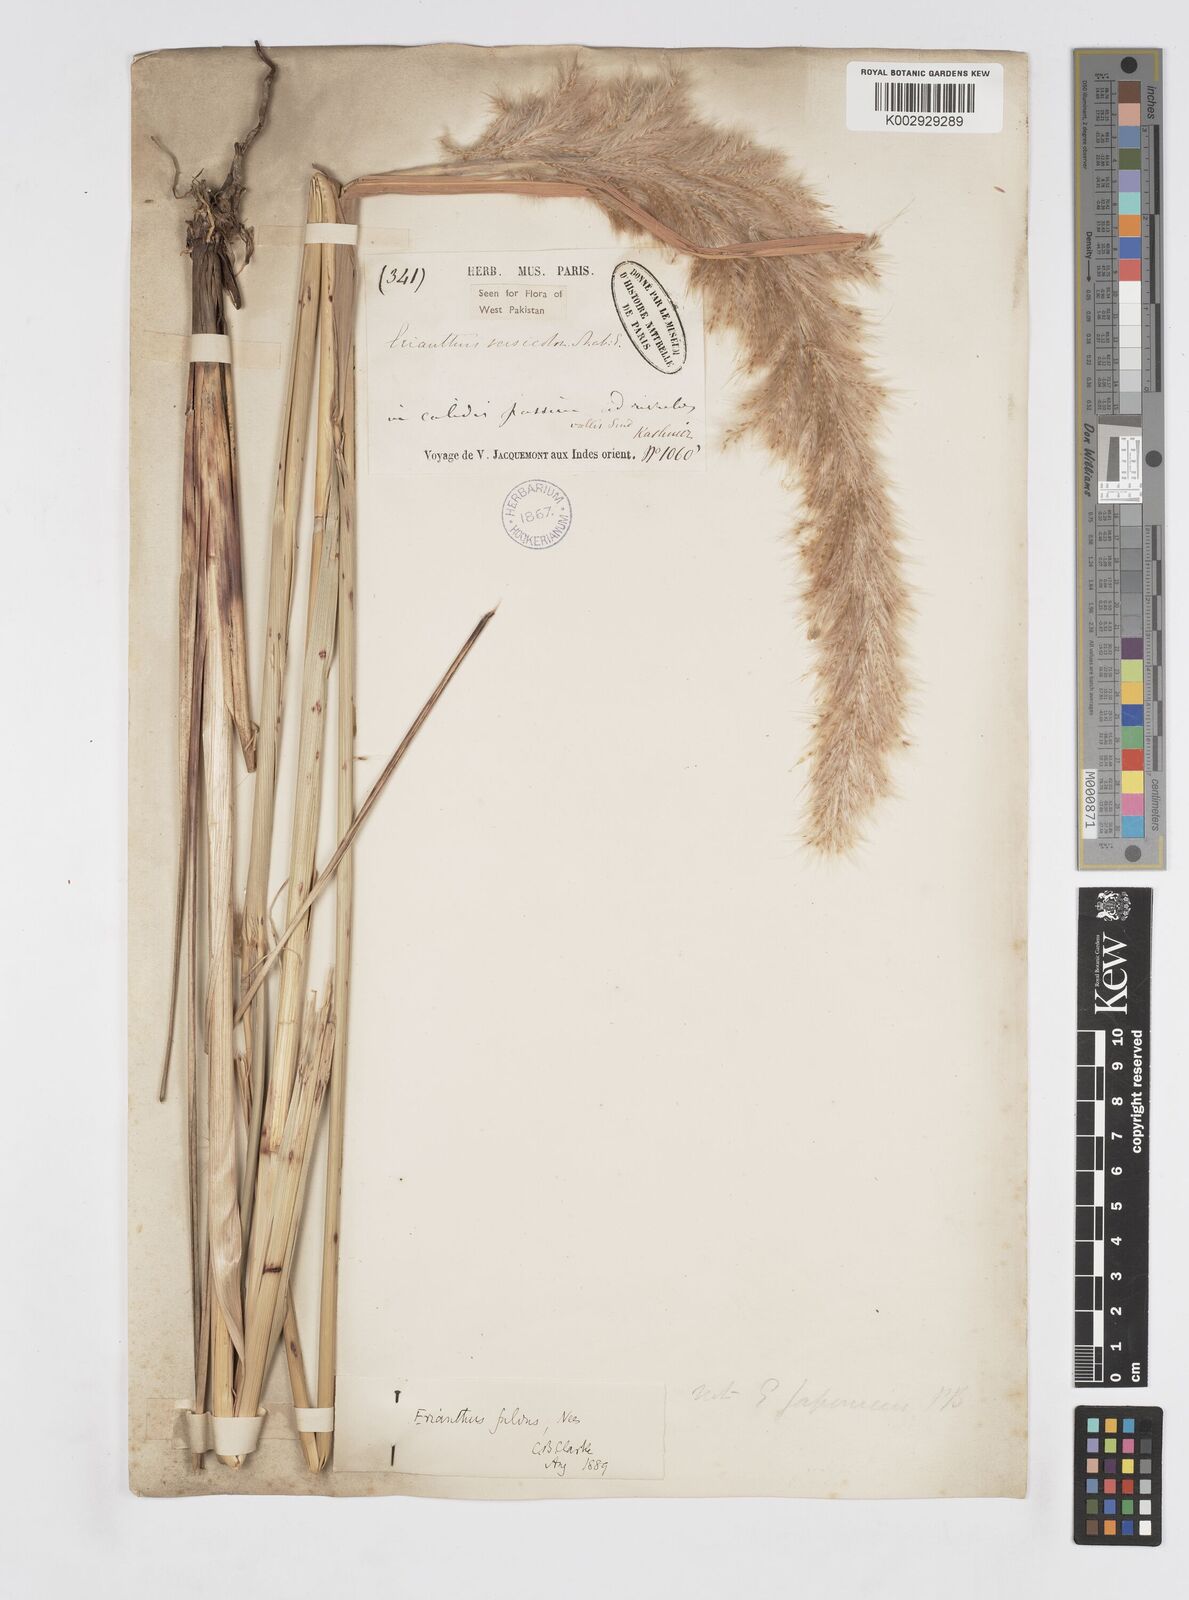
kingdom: Plantae
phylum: Tracheophyta
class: Liliopsida
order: Poales
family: Poaceae
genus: Tripidium
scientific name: Tripidium rufipilum
